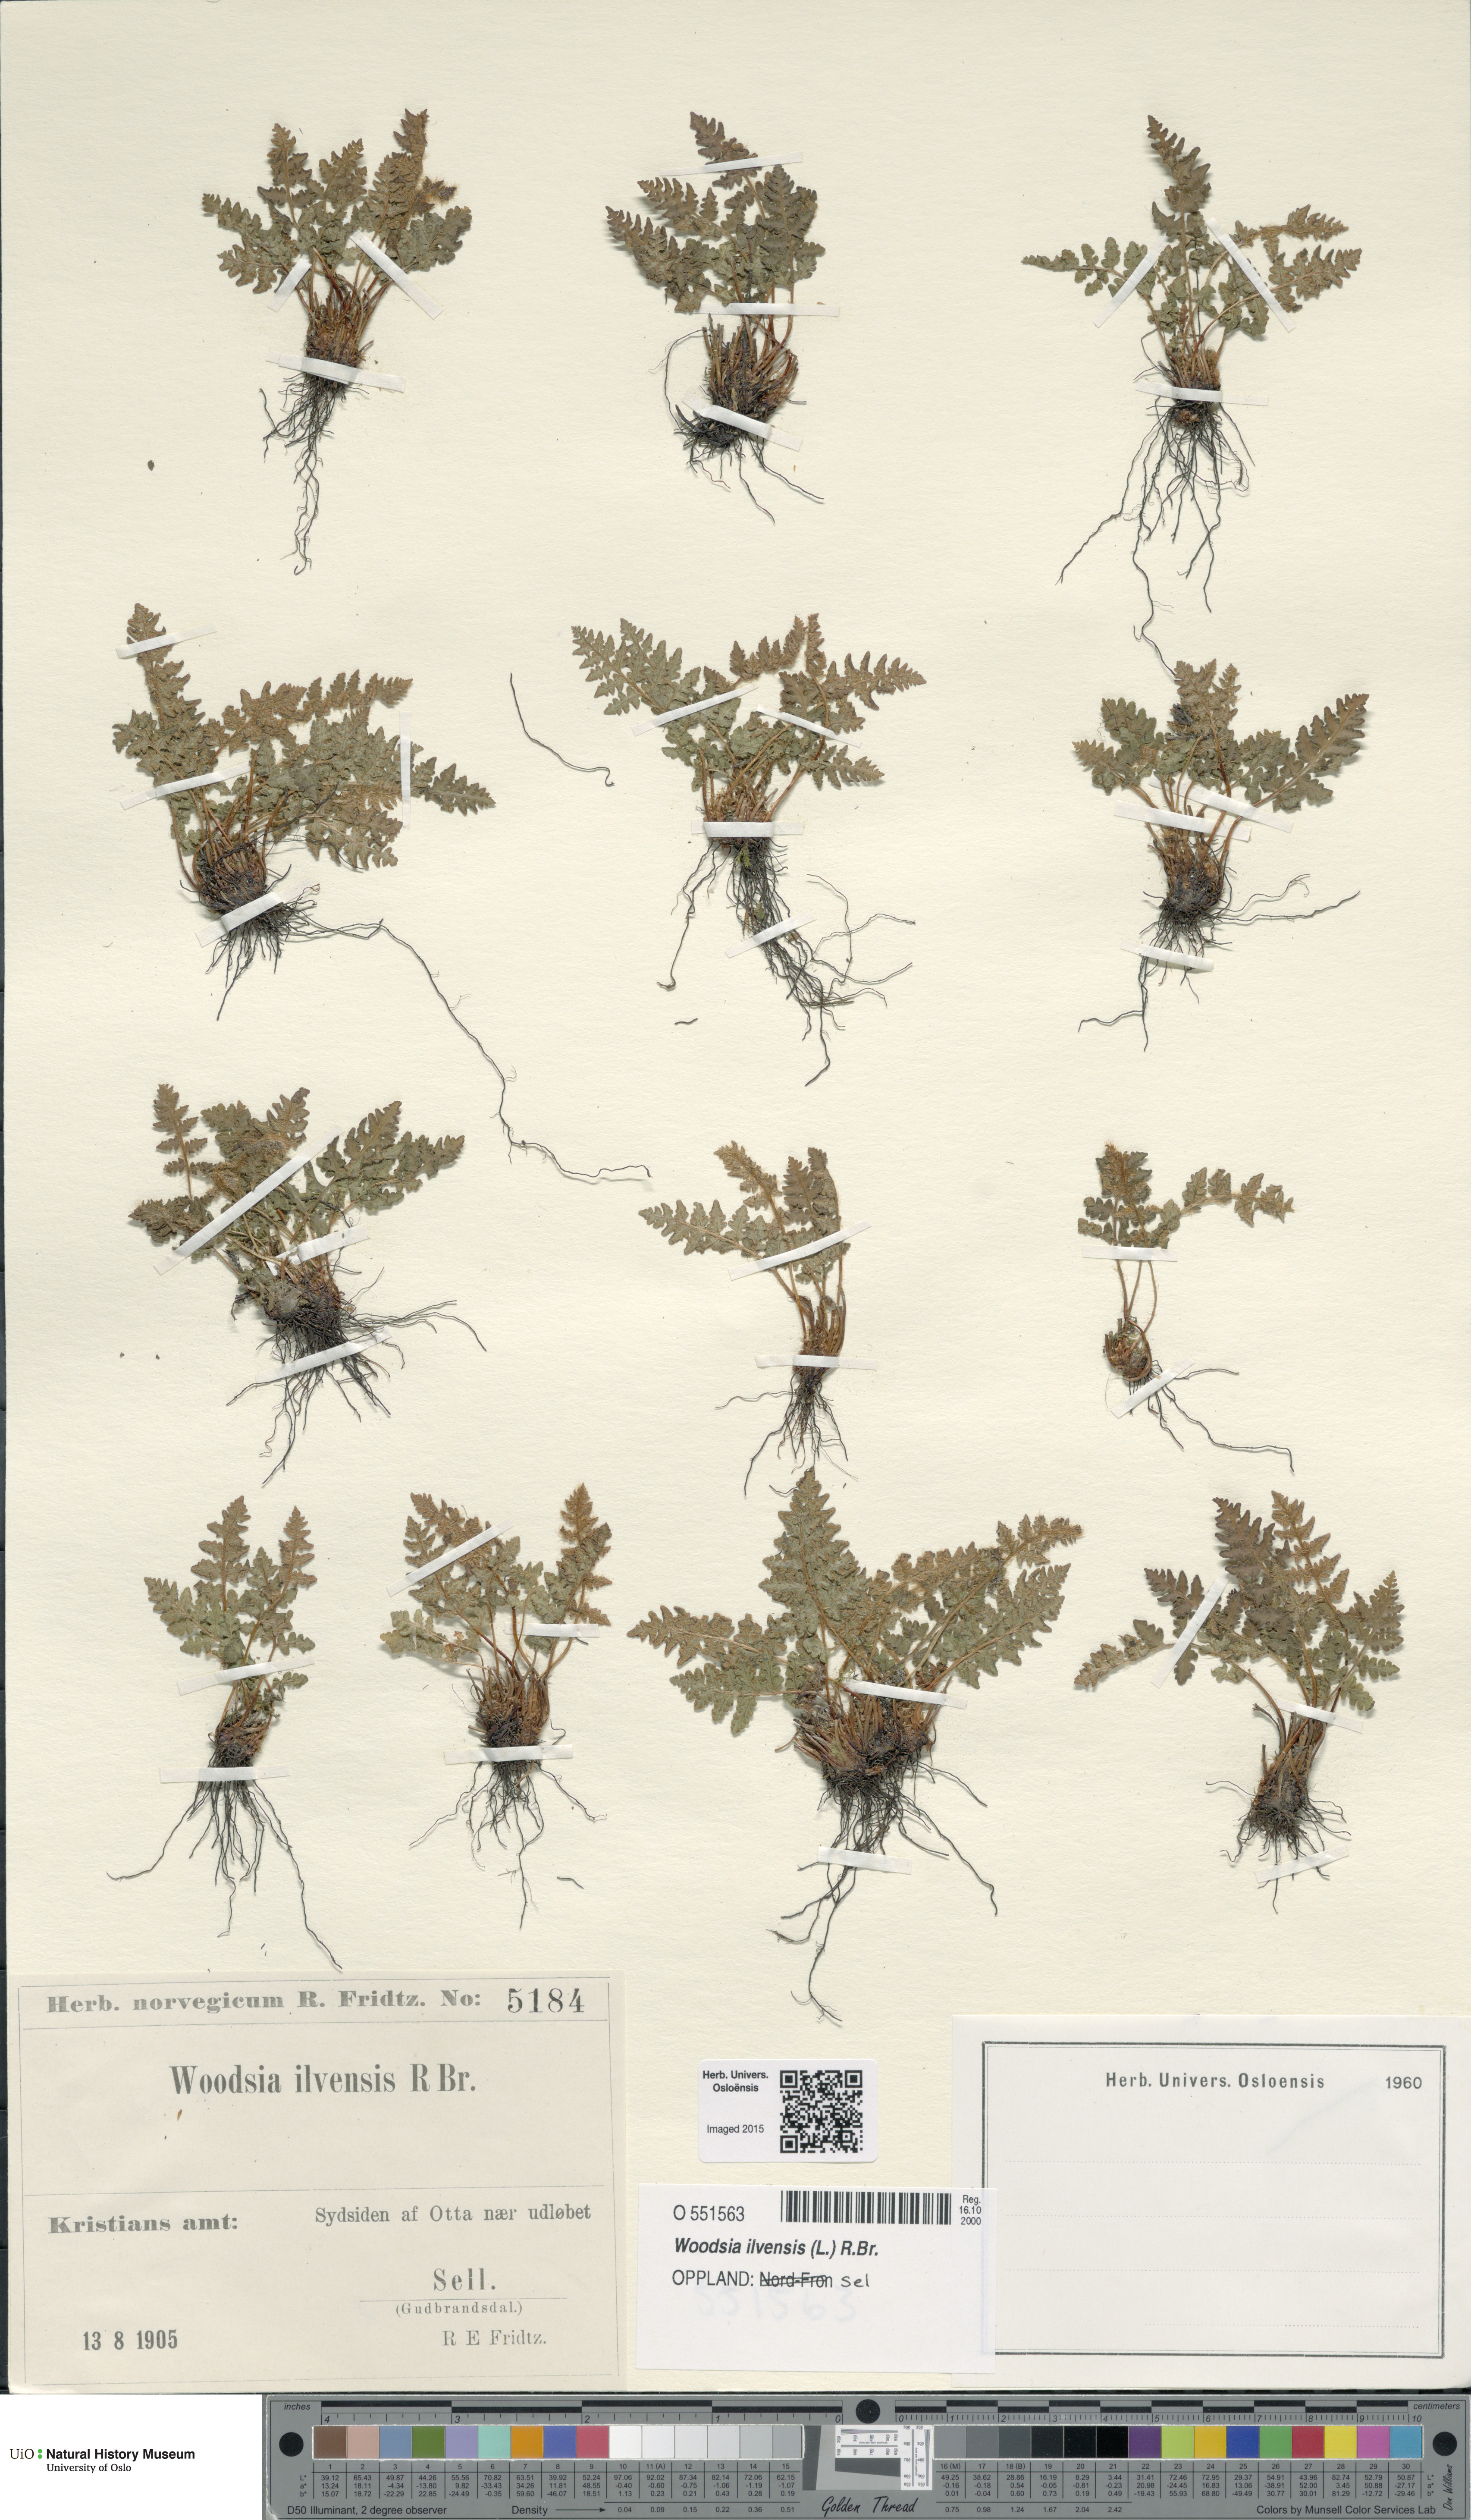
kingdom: Plantae
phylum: Tracheophyta
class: Polypodiopsida
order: Polypodiales
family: Woodsiaceae
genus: Woodsia
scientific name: Woodsia ilvensis
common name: Fragrant woodsia
